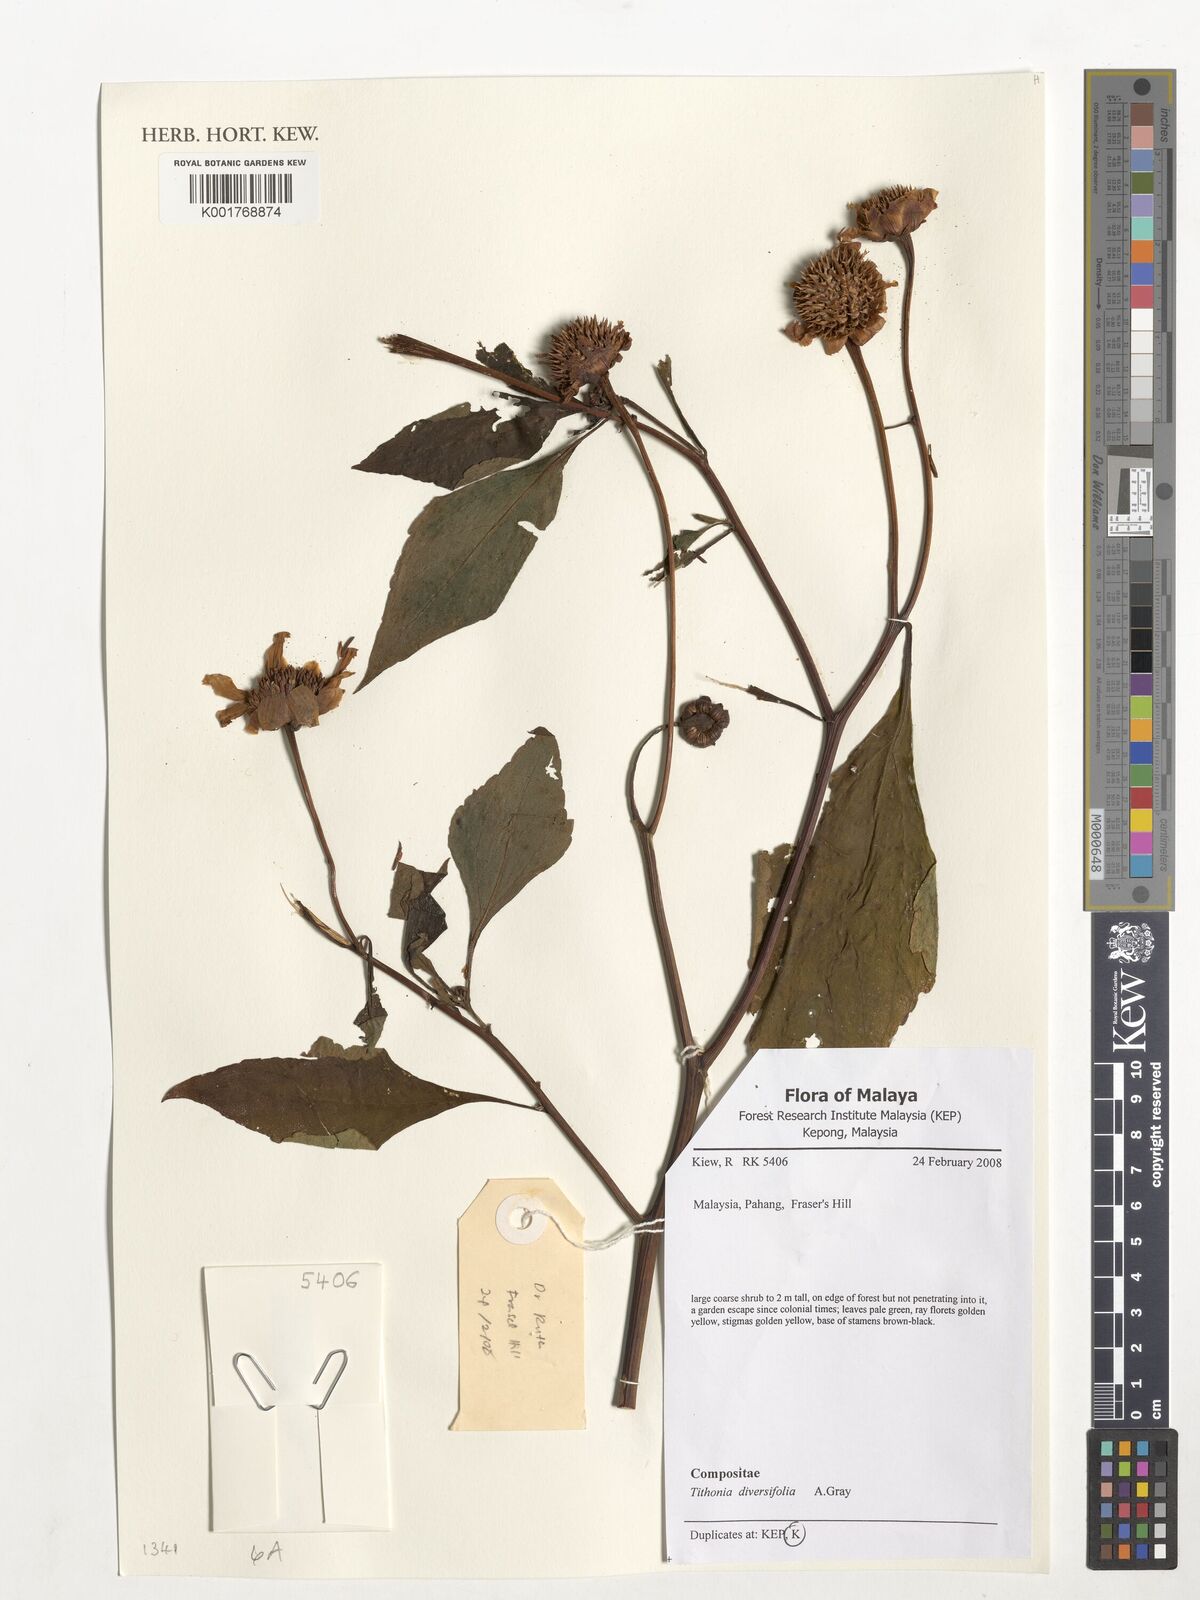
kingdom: Plantae
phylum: Tracheophyta
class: Magnoliopsida
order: Asterales
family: Asteraceae
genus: Tithonia
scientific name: Tithonia diversifolia
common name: Tree marigold
